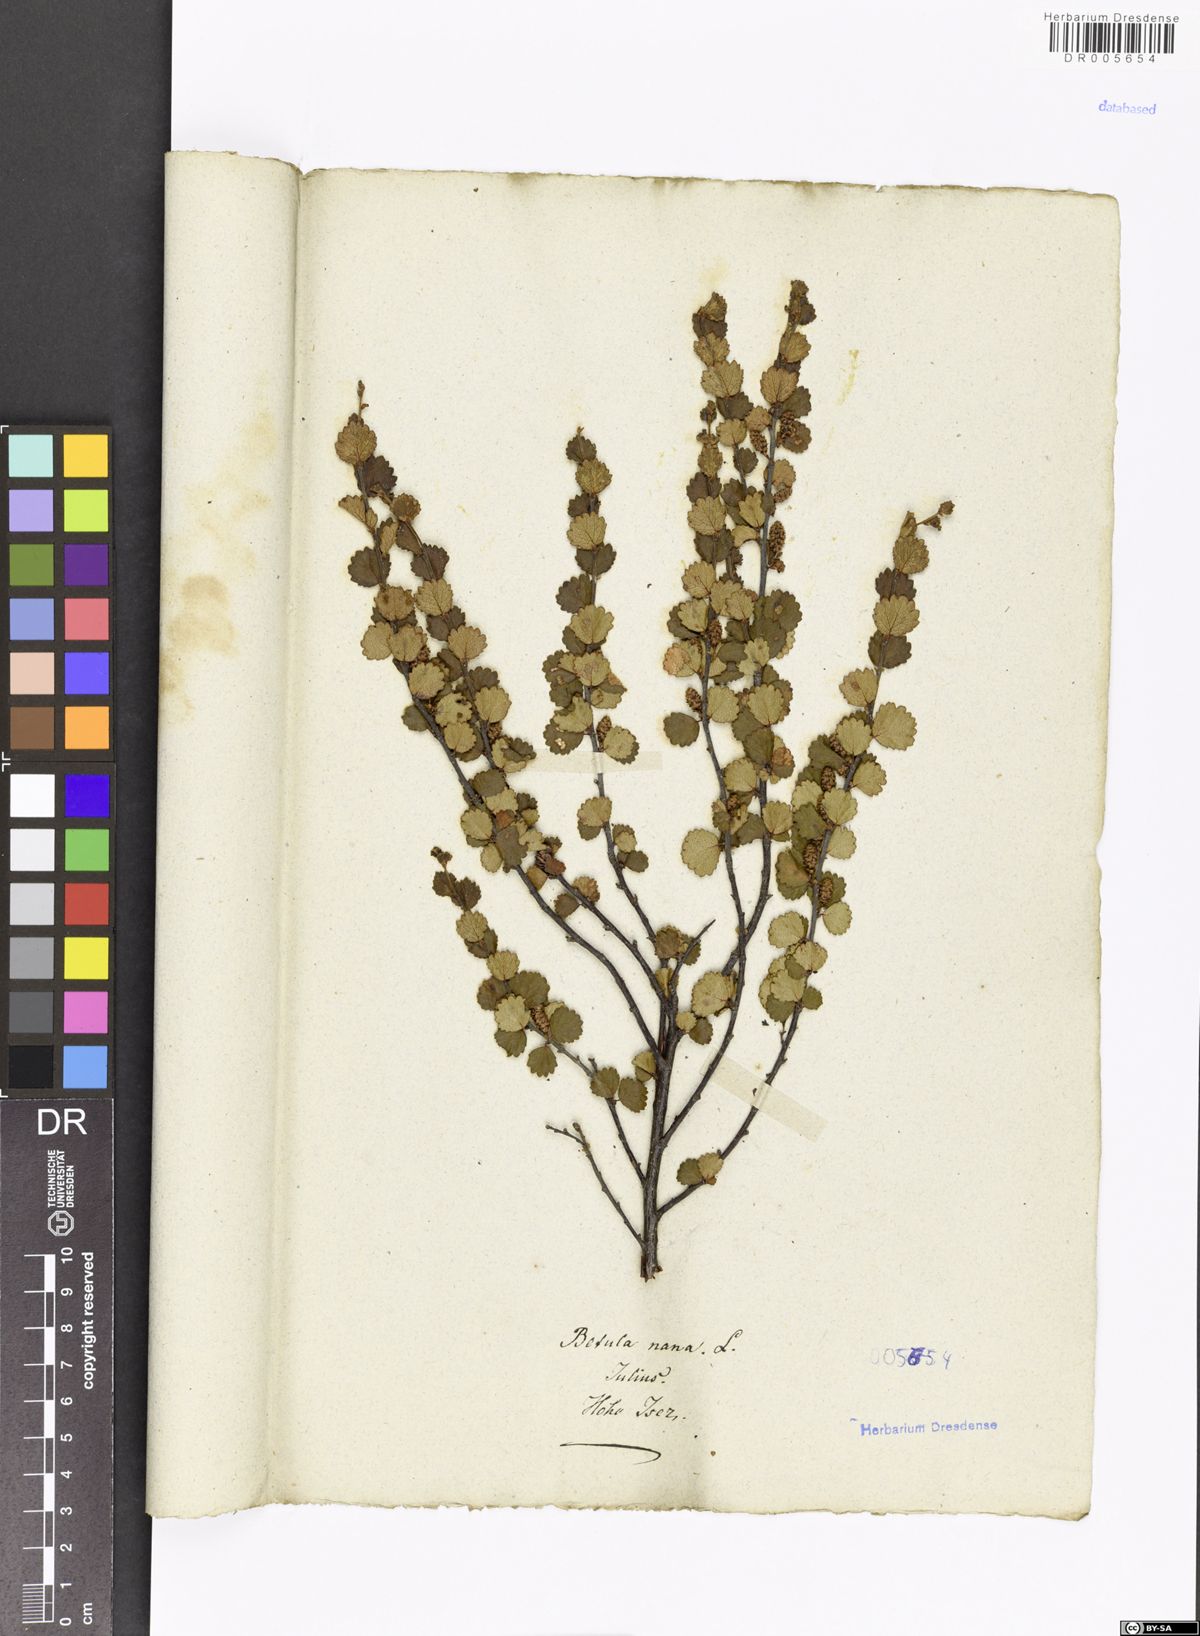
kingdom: Plantae
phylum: Tracheophyta
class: Magnoliopsida
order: Fagales
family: Betulaceae
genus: Betula
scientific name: Betula nana
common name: Arctic dwarf birch
